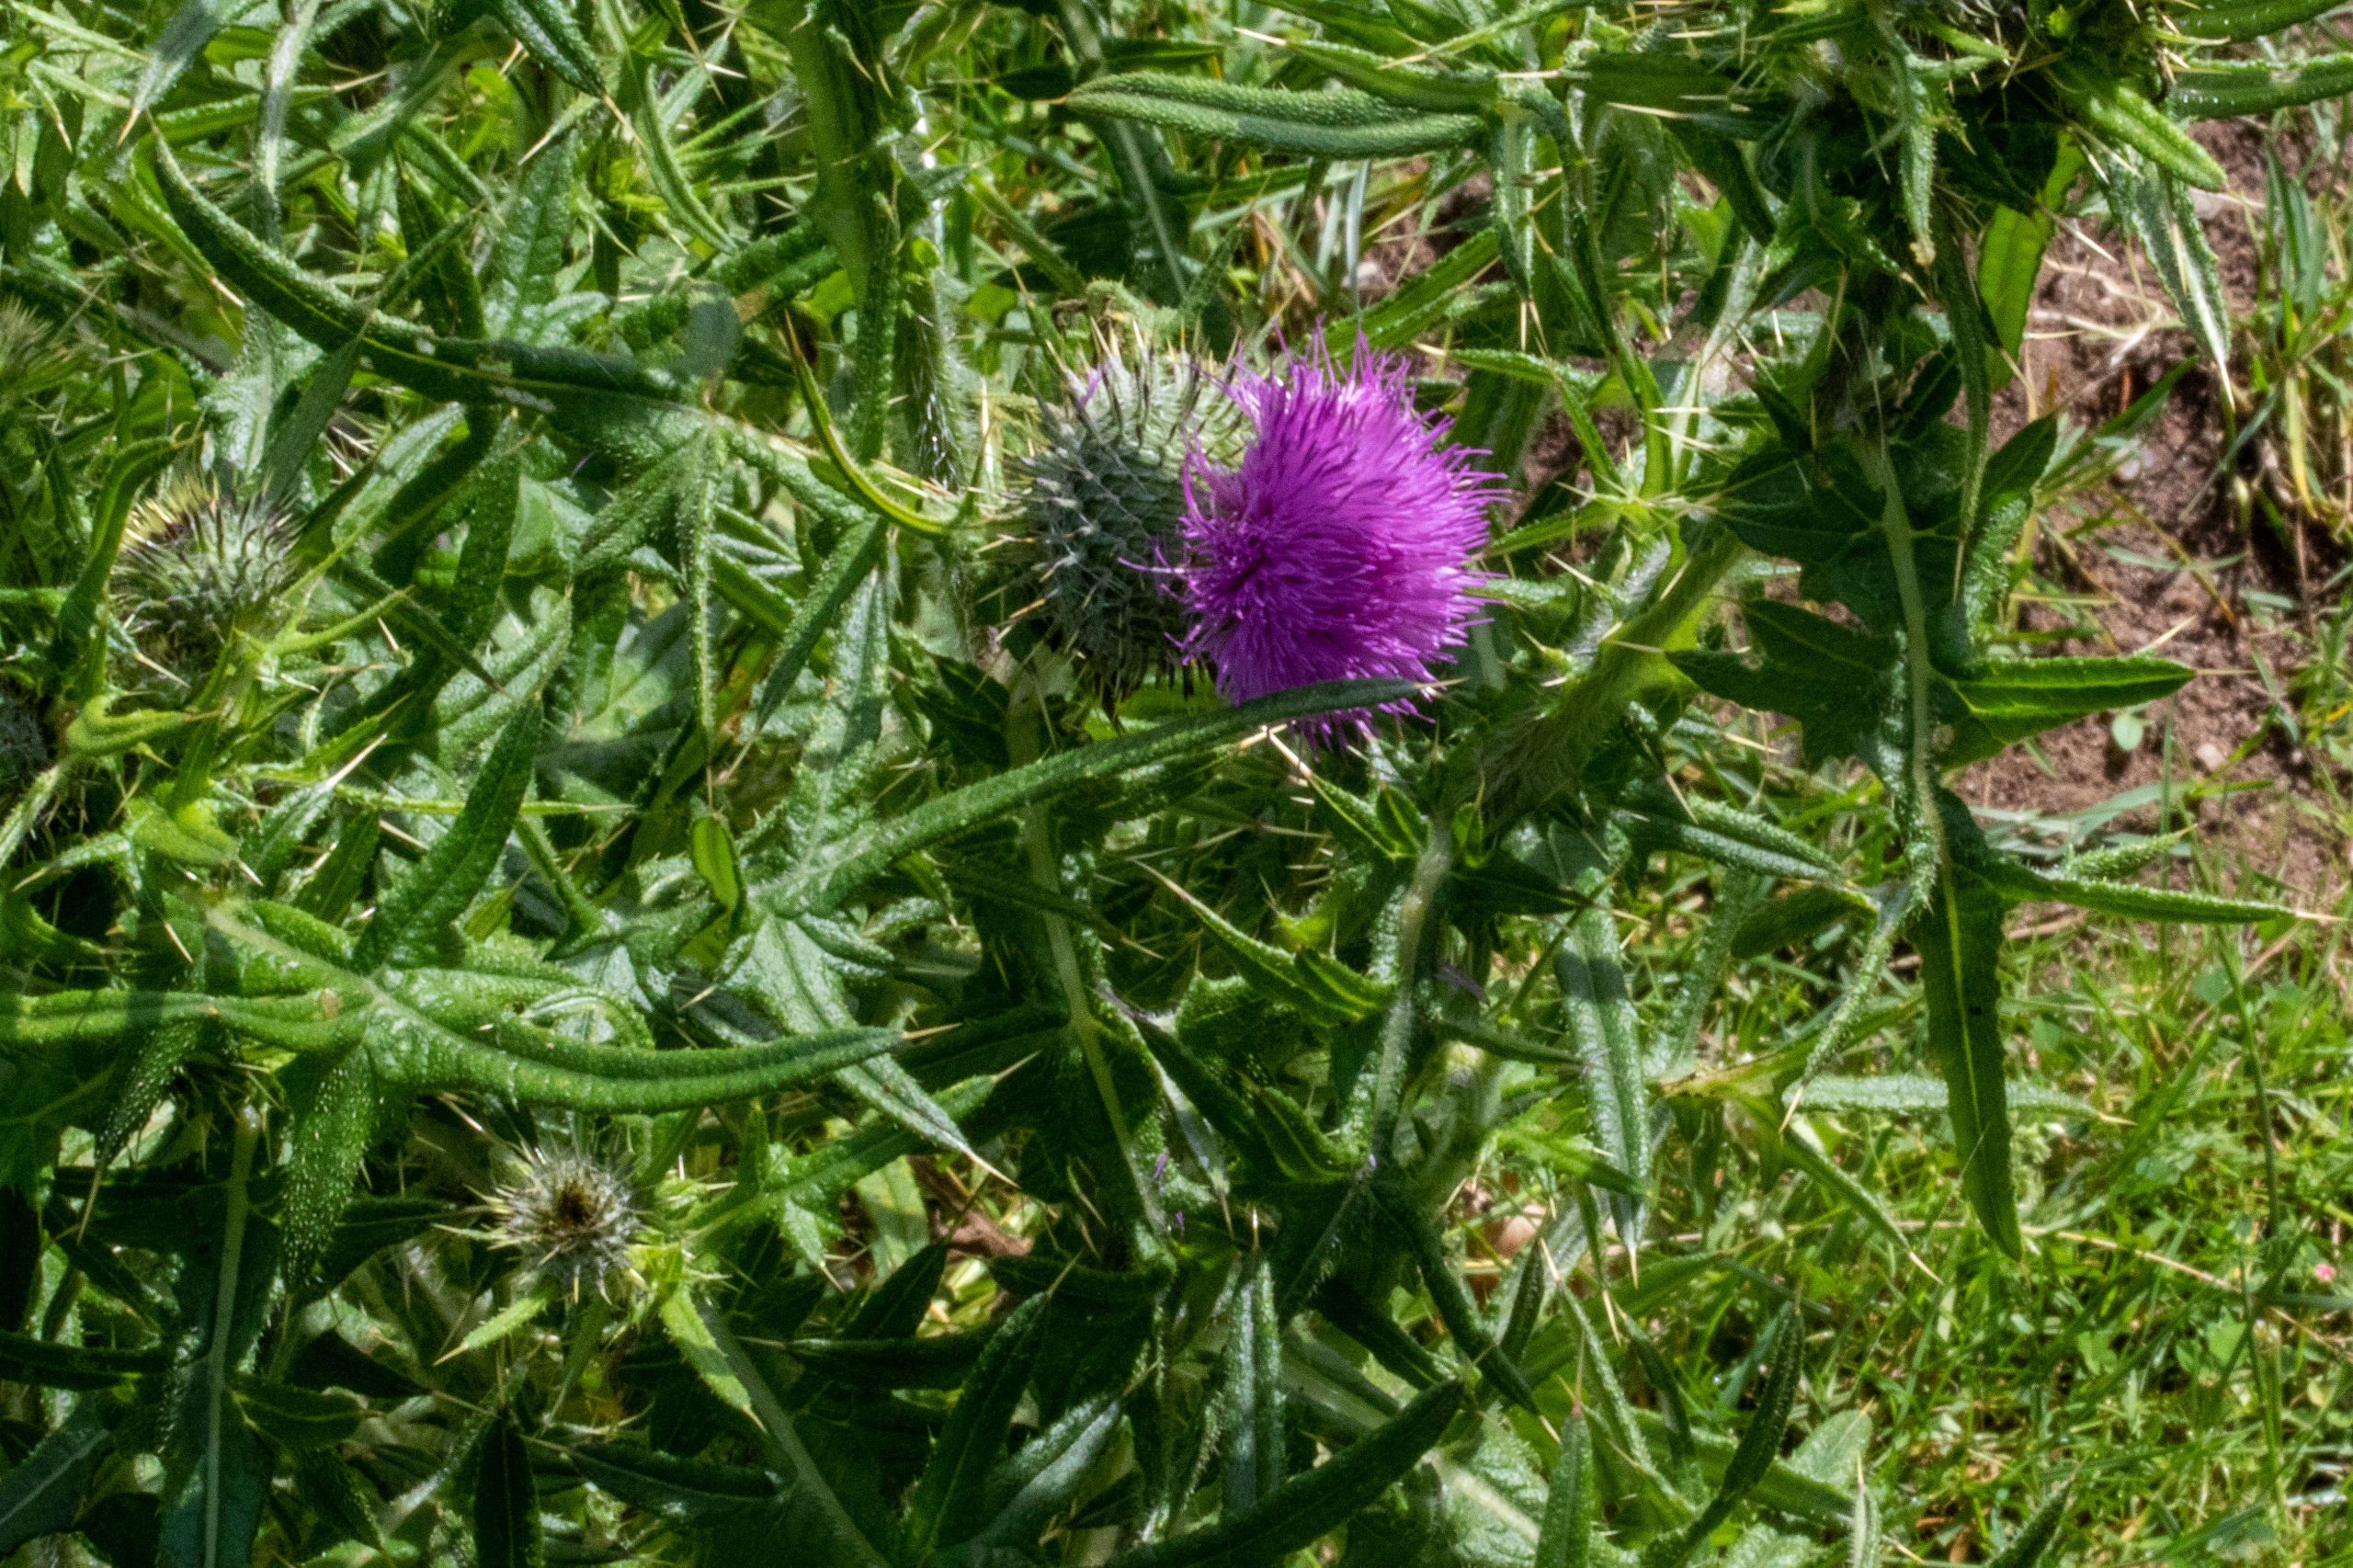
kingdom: Plantae
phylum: Tracheophyta
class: Magnoliopsida
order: Asterales
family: Asteraceae
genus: Cirsium
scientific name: Cirsium vulgare
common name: Horse-tidsel
